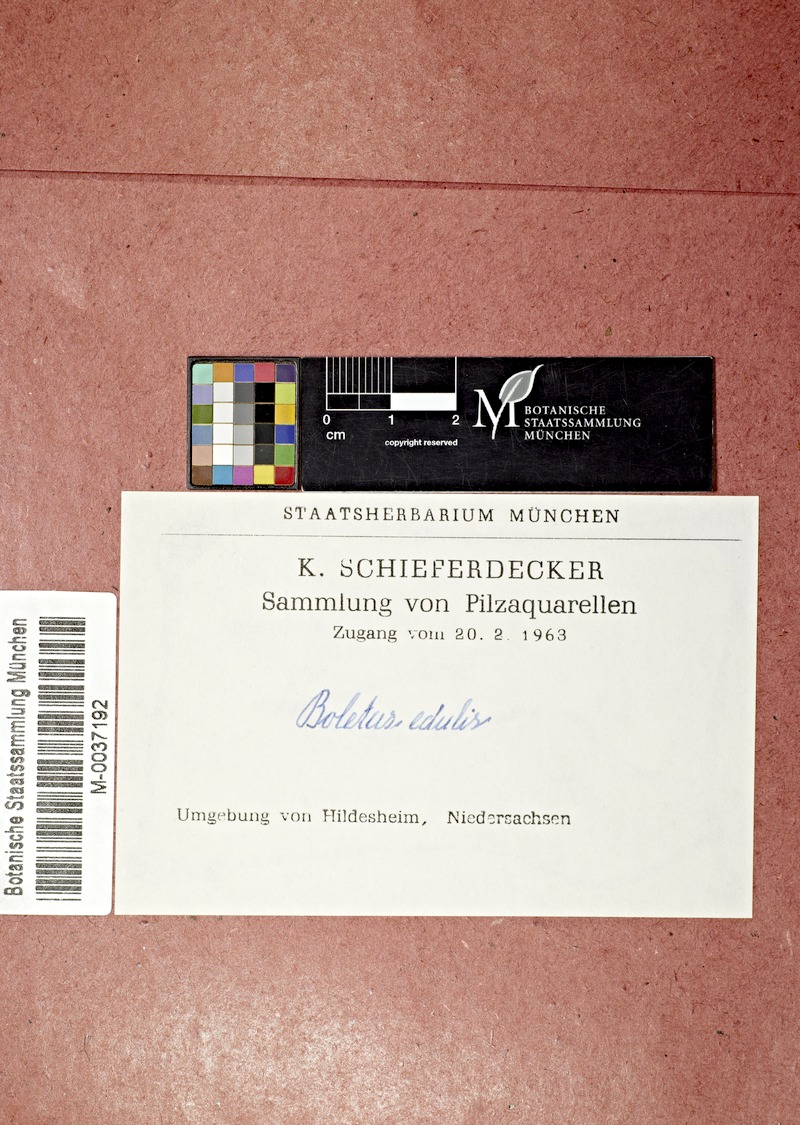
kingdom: Fungi
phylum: Basidiomycota
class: Agaricomycetes
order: Boletales
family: Boletaceae
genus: Boletus
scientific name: Boletus edulis
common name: Cep
